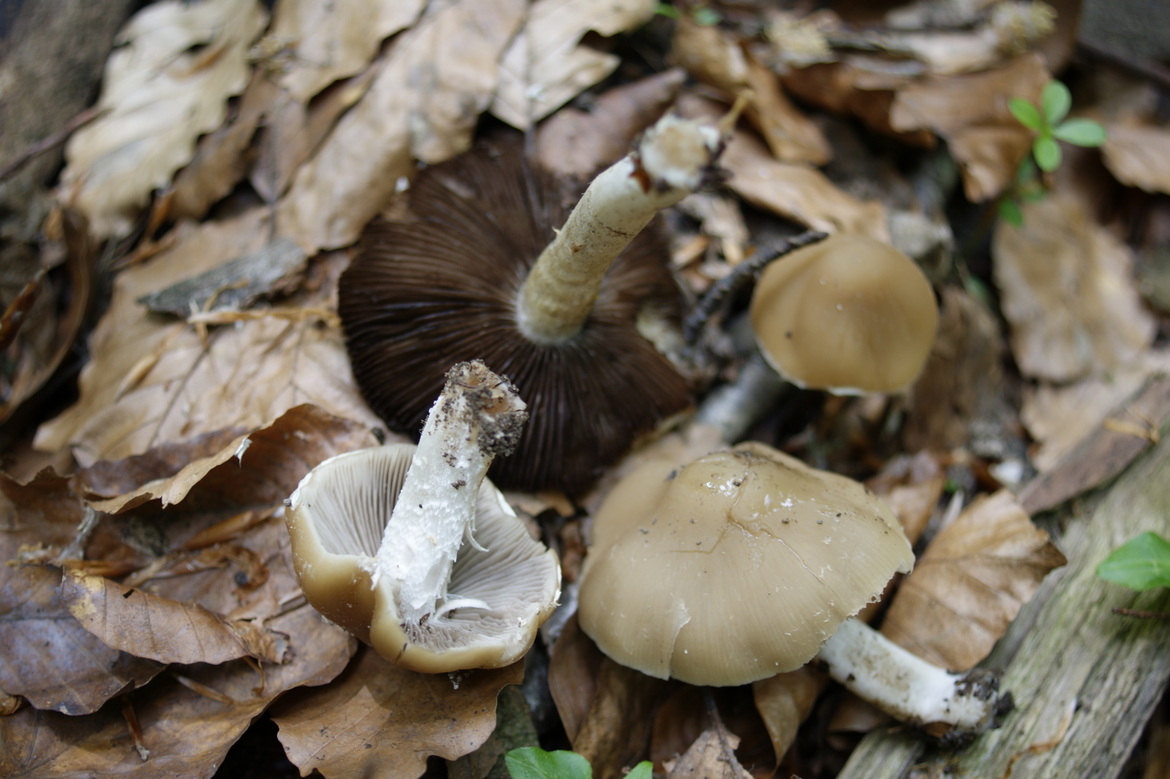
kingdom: Fungi
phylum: Basidiomycota
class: Agaricomycetes
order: Agaricales
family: Psathyrellaceae
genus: Psathyrella
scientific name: Psathyrella spadiceogrisea
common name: gråbrun mørkhat
